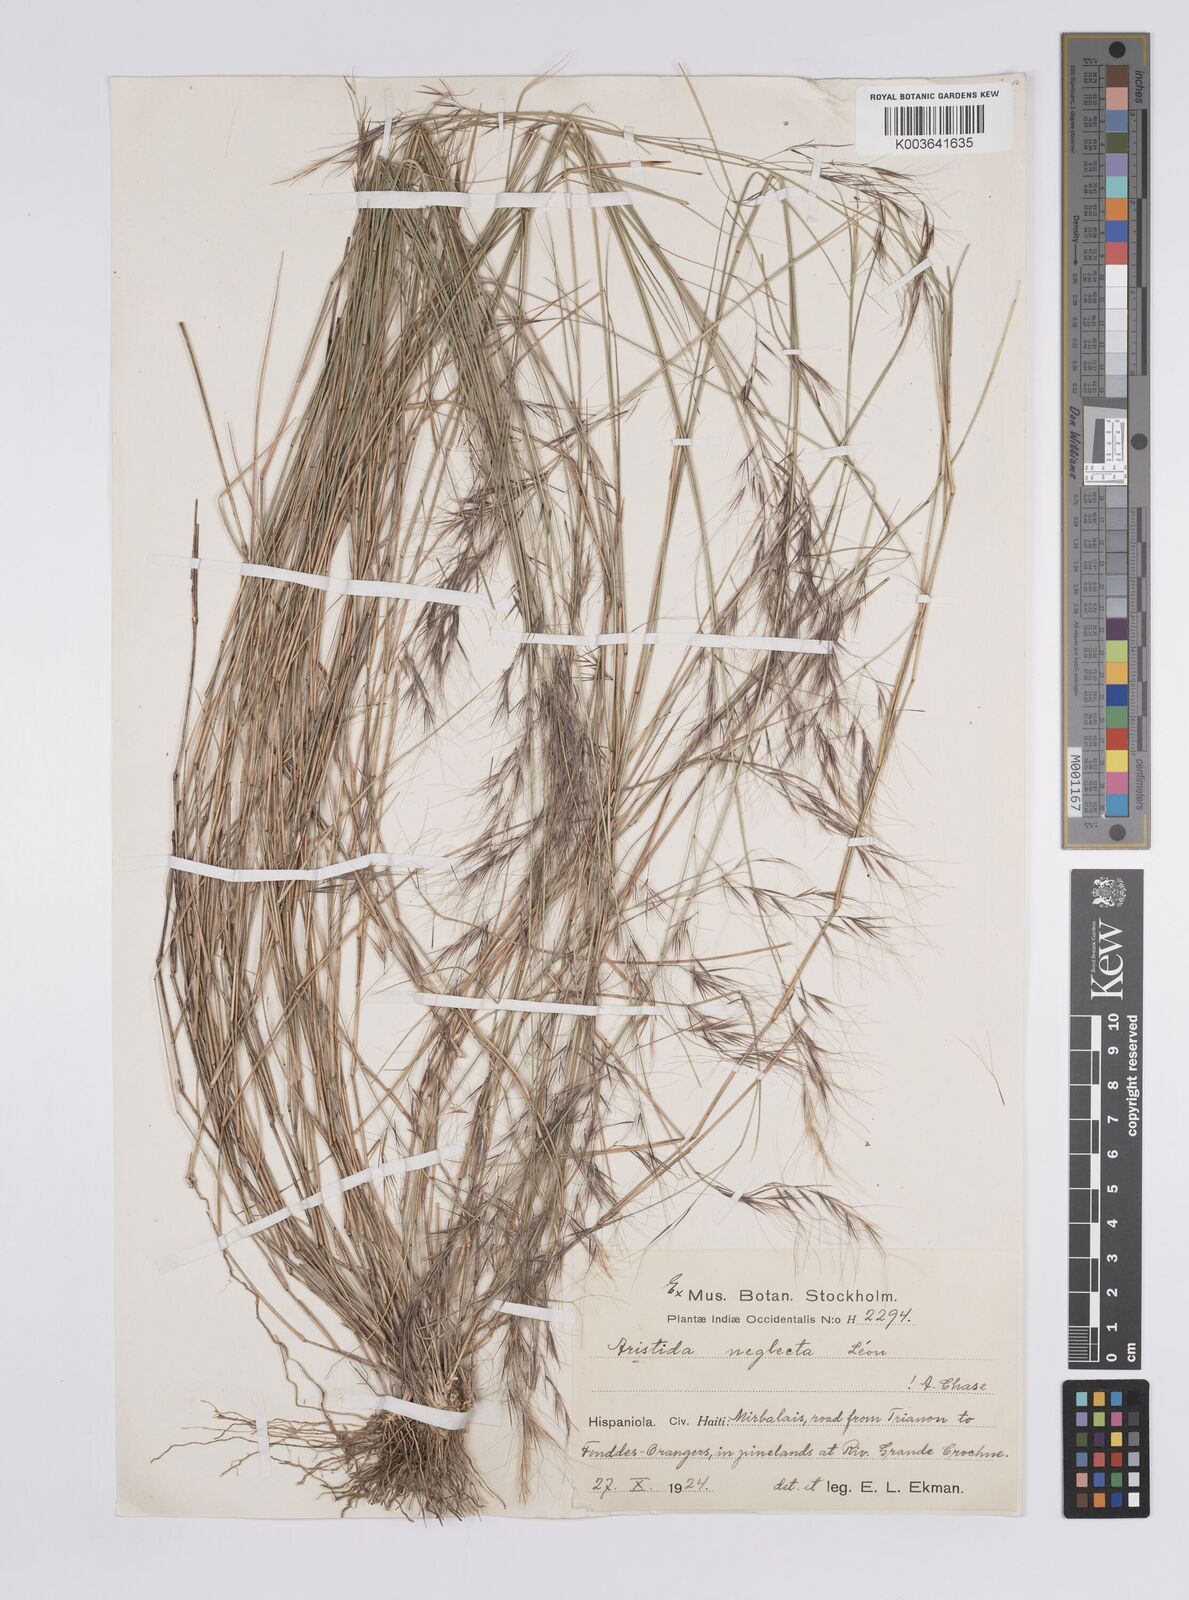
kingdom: Plantae
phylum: Tracheophyta
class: Liliopsida
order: Poales
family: Poaceae
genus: Aristida
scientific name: Aristida neglecta
